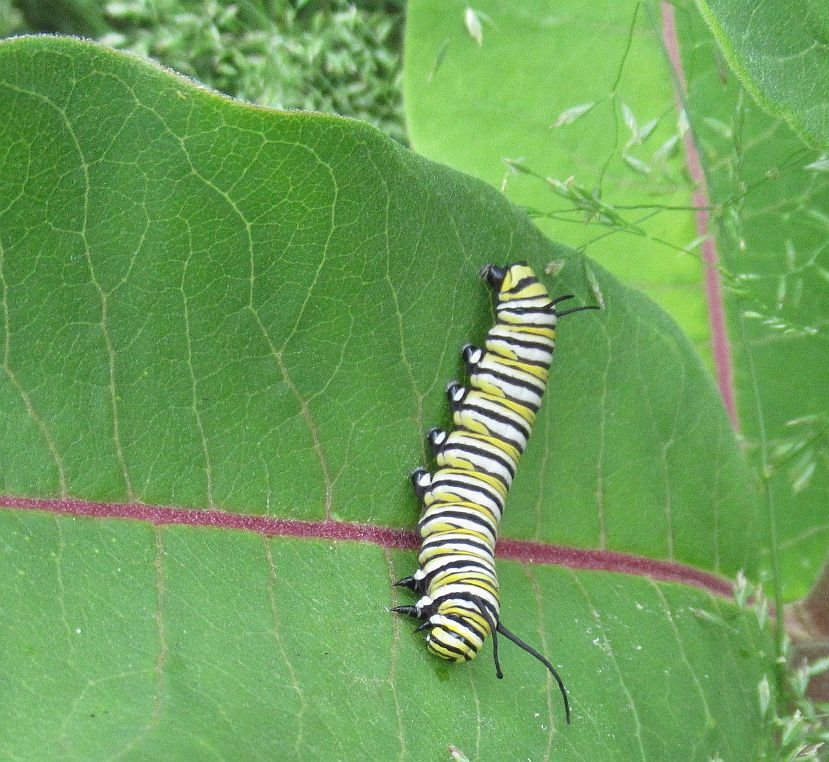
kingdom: Animalia
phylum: Arthropoda
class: Insecta
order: Lepidoptera
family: Nymphalidae
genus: Danaus
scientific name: Danaus plexippus
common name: Monarch
